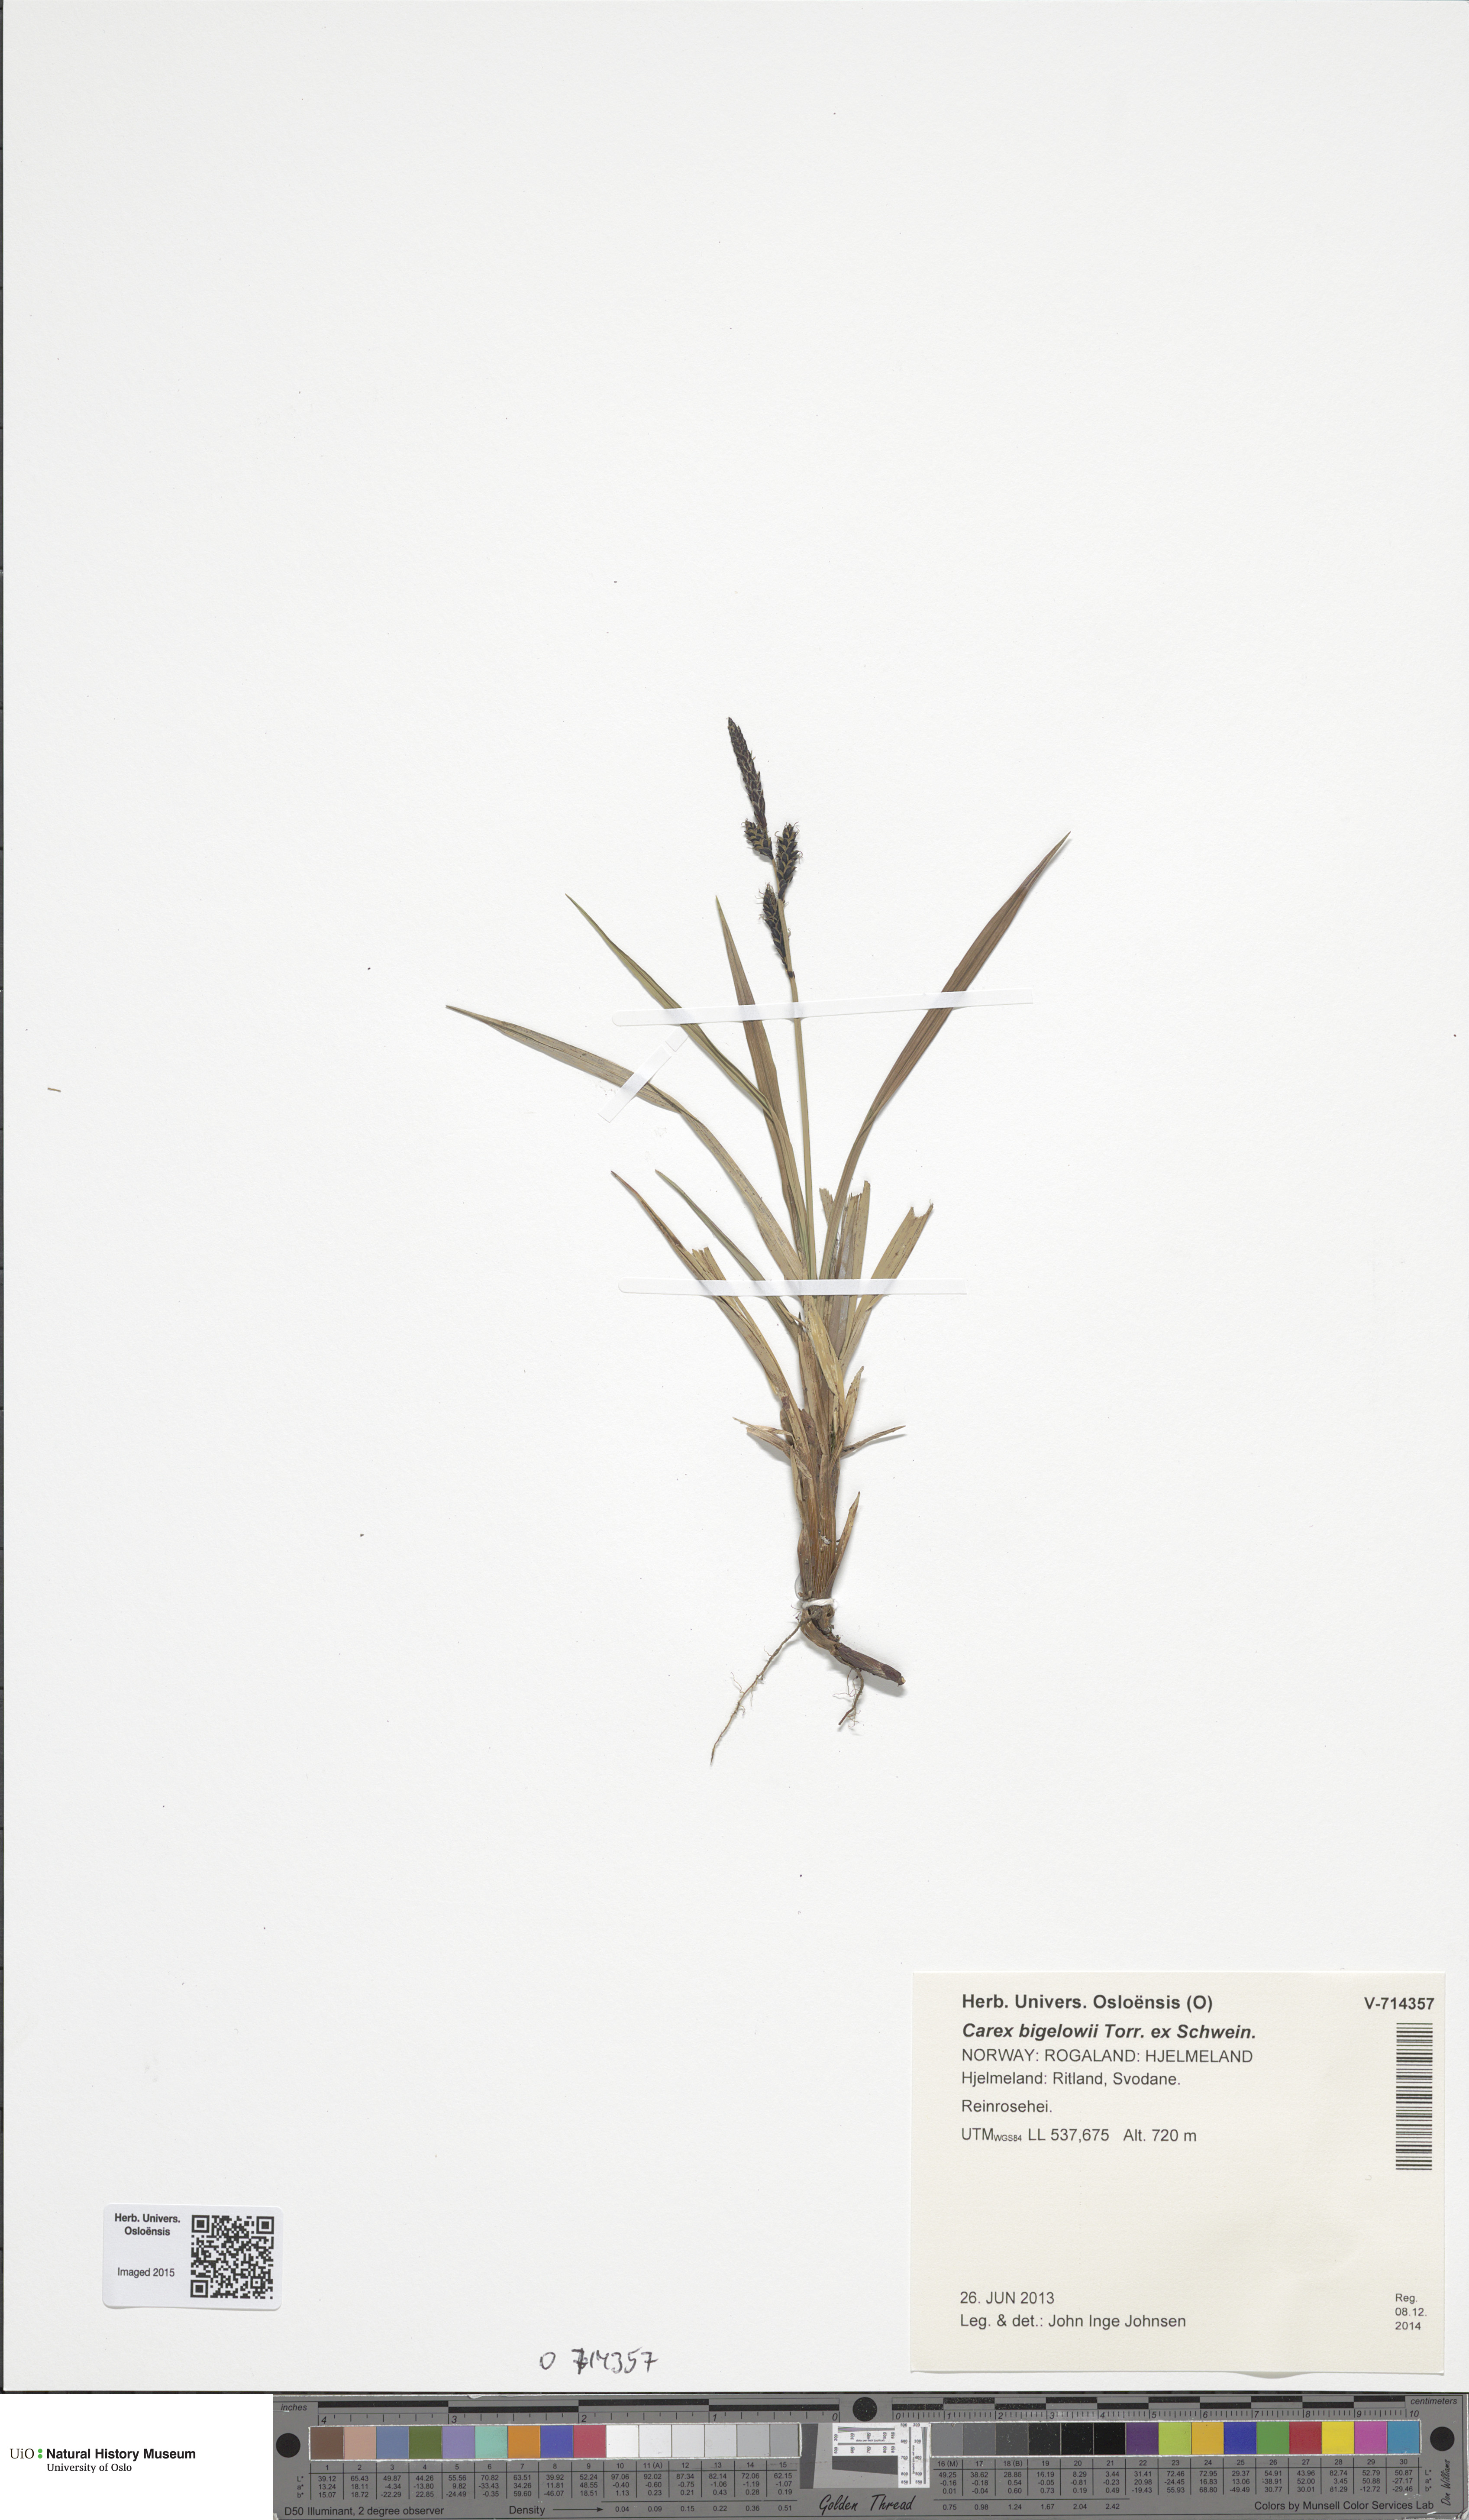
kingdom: Plantae
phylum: Tracheophyta
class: Liliopsida
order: Poales
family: Cyperaceae
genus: Carex
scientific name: Carex bigelowii
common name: Stiff sedge
